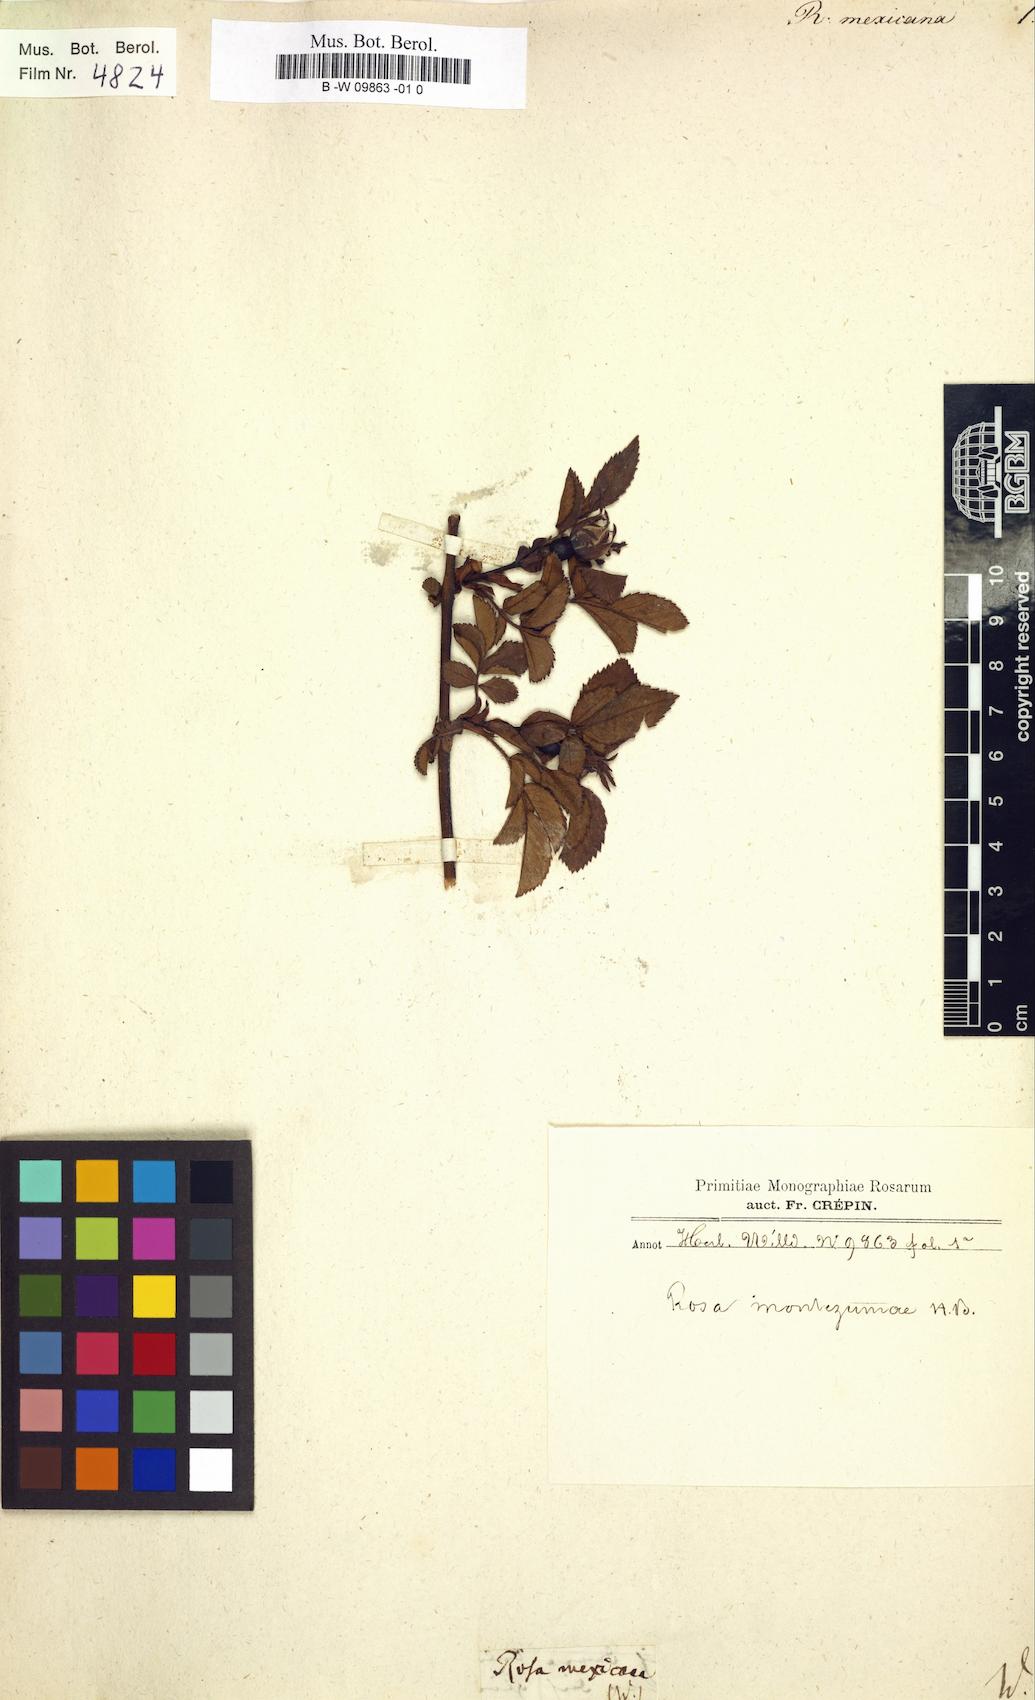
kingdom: Plantae
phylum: Tracheophyta
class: Magnoliopsida
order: Rosales
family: Rosaceae
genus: Rosa
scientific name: Rosa
